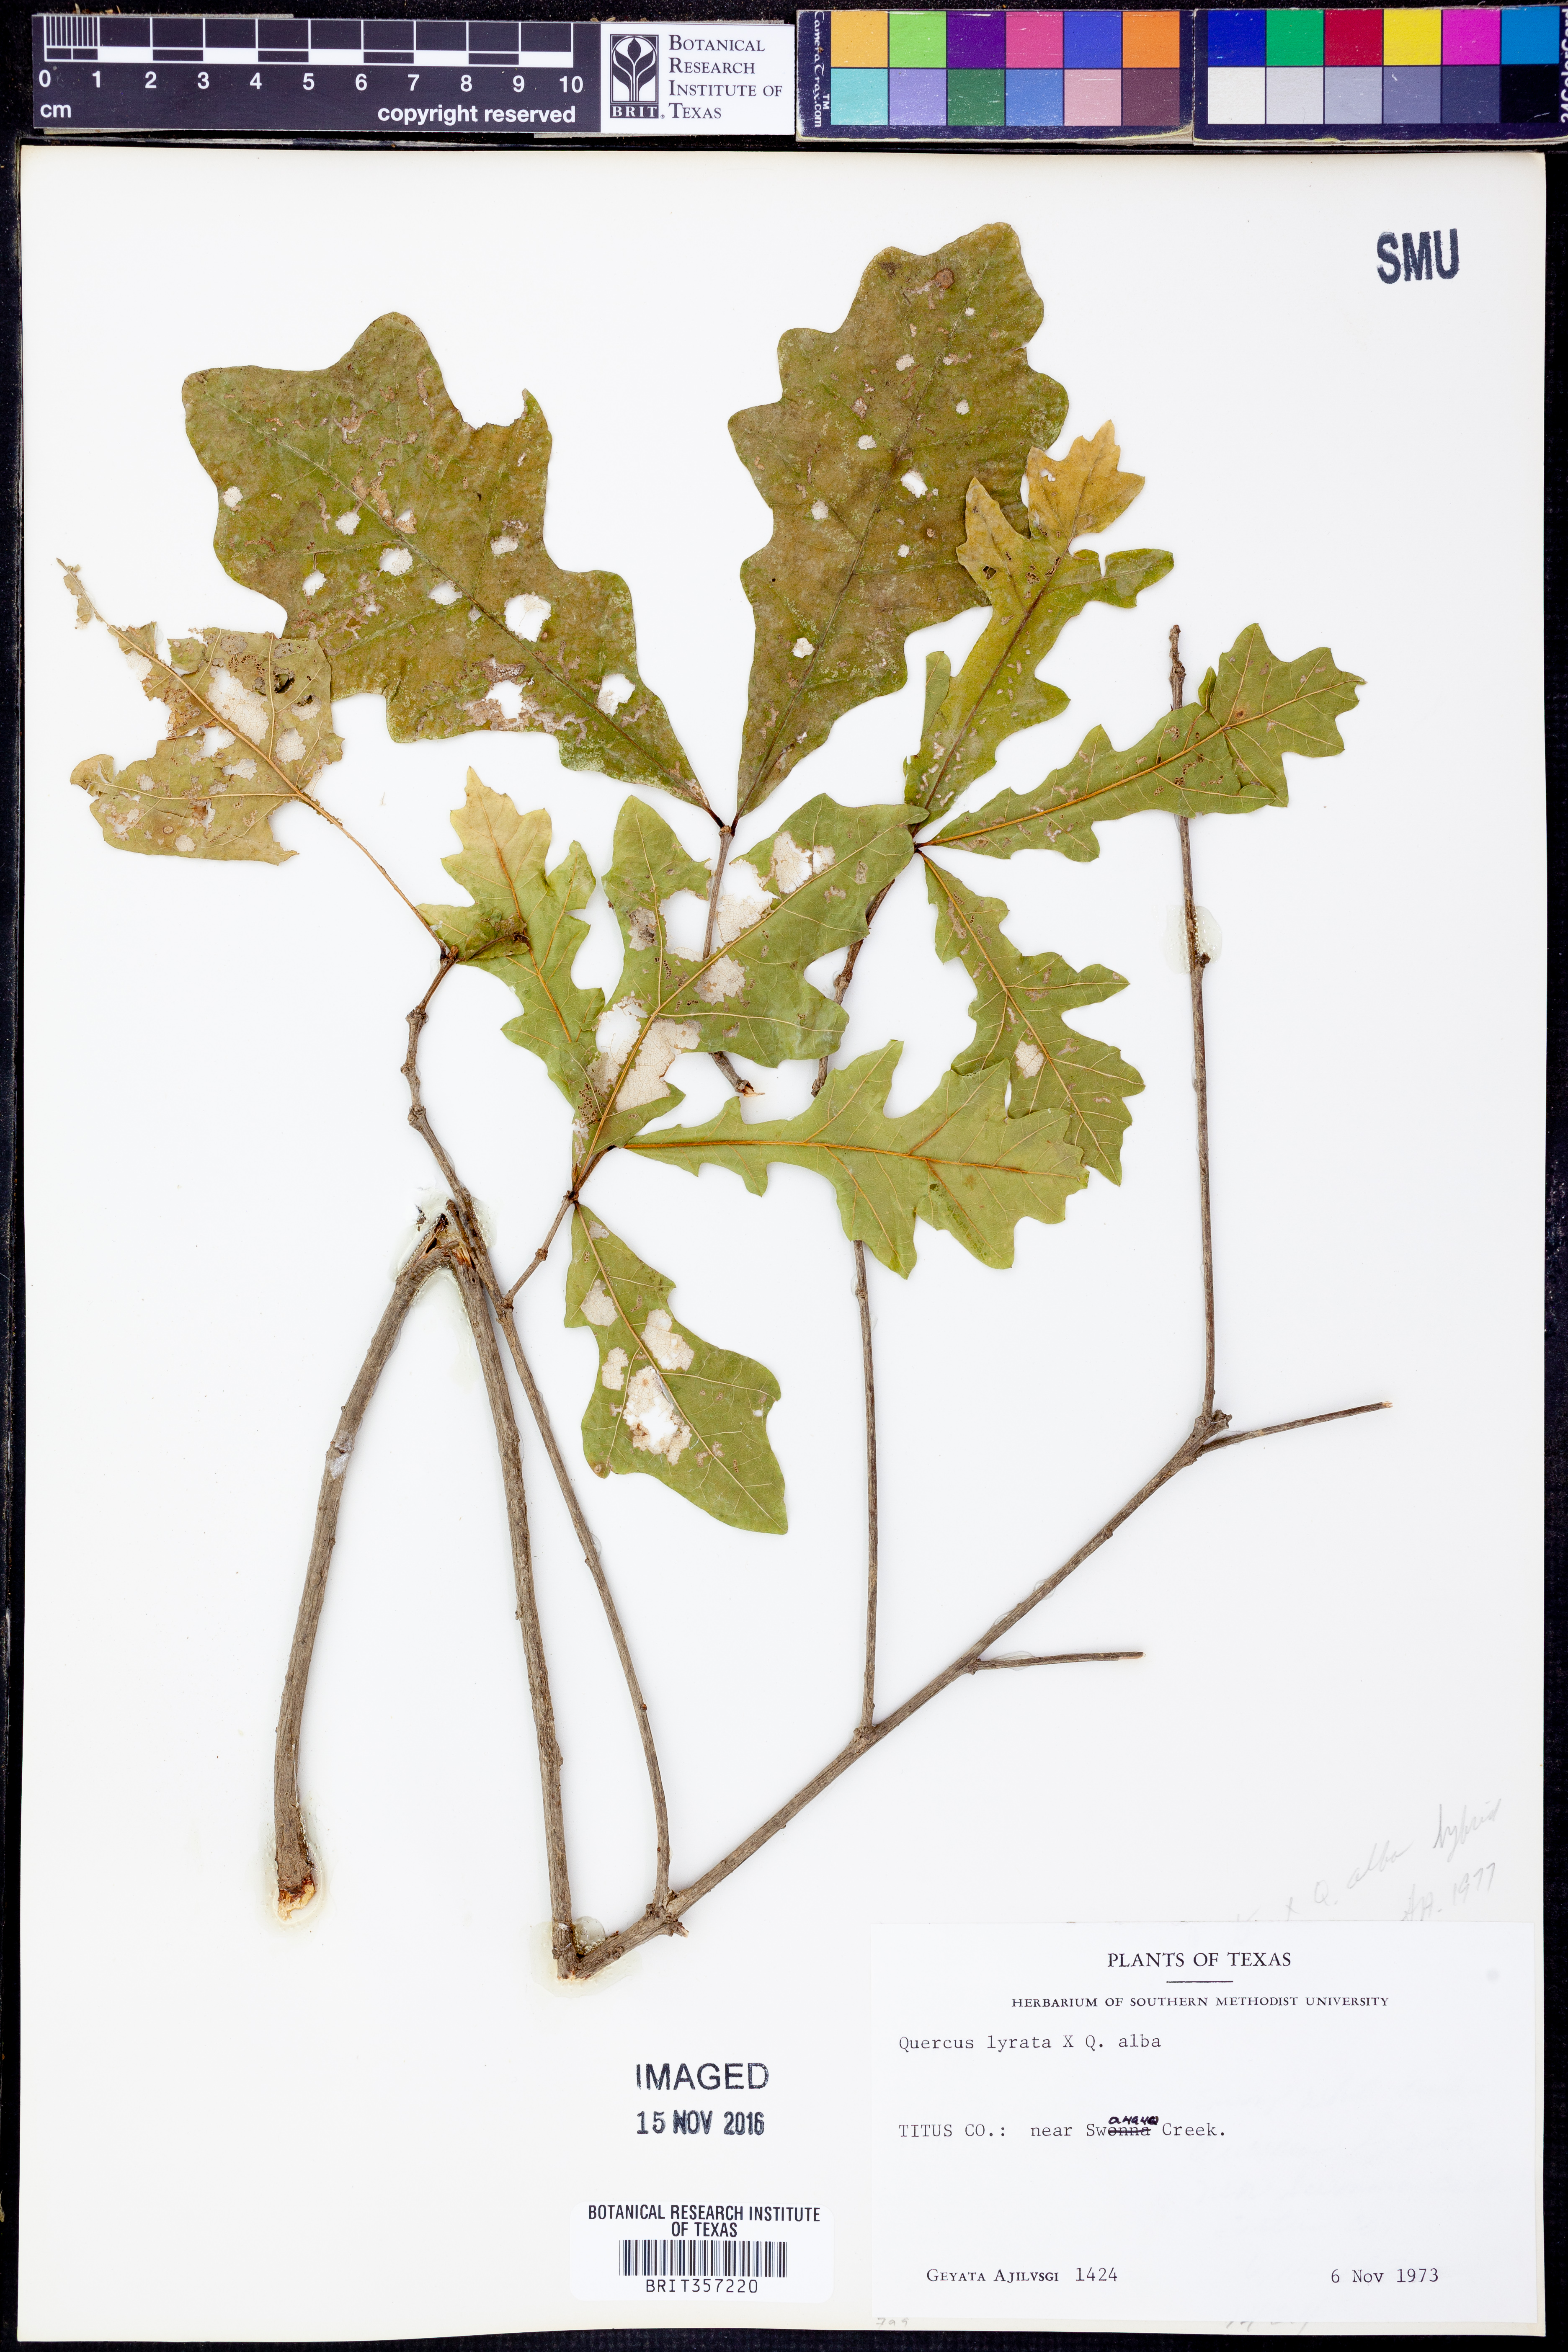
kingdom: Plantae
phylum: Tracheophyta
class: Magnoliopsida
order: Fagales
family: Fagaceae
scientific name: Fagaceae
